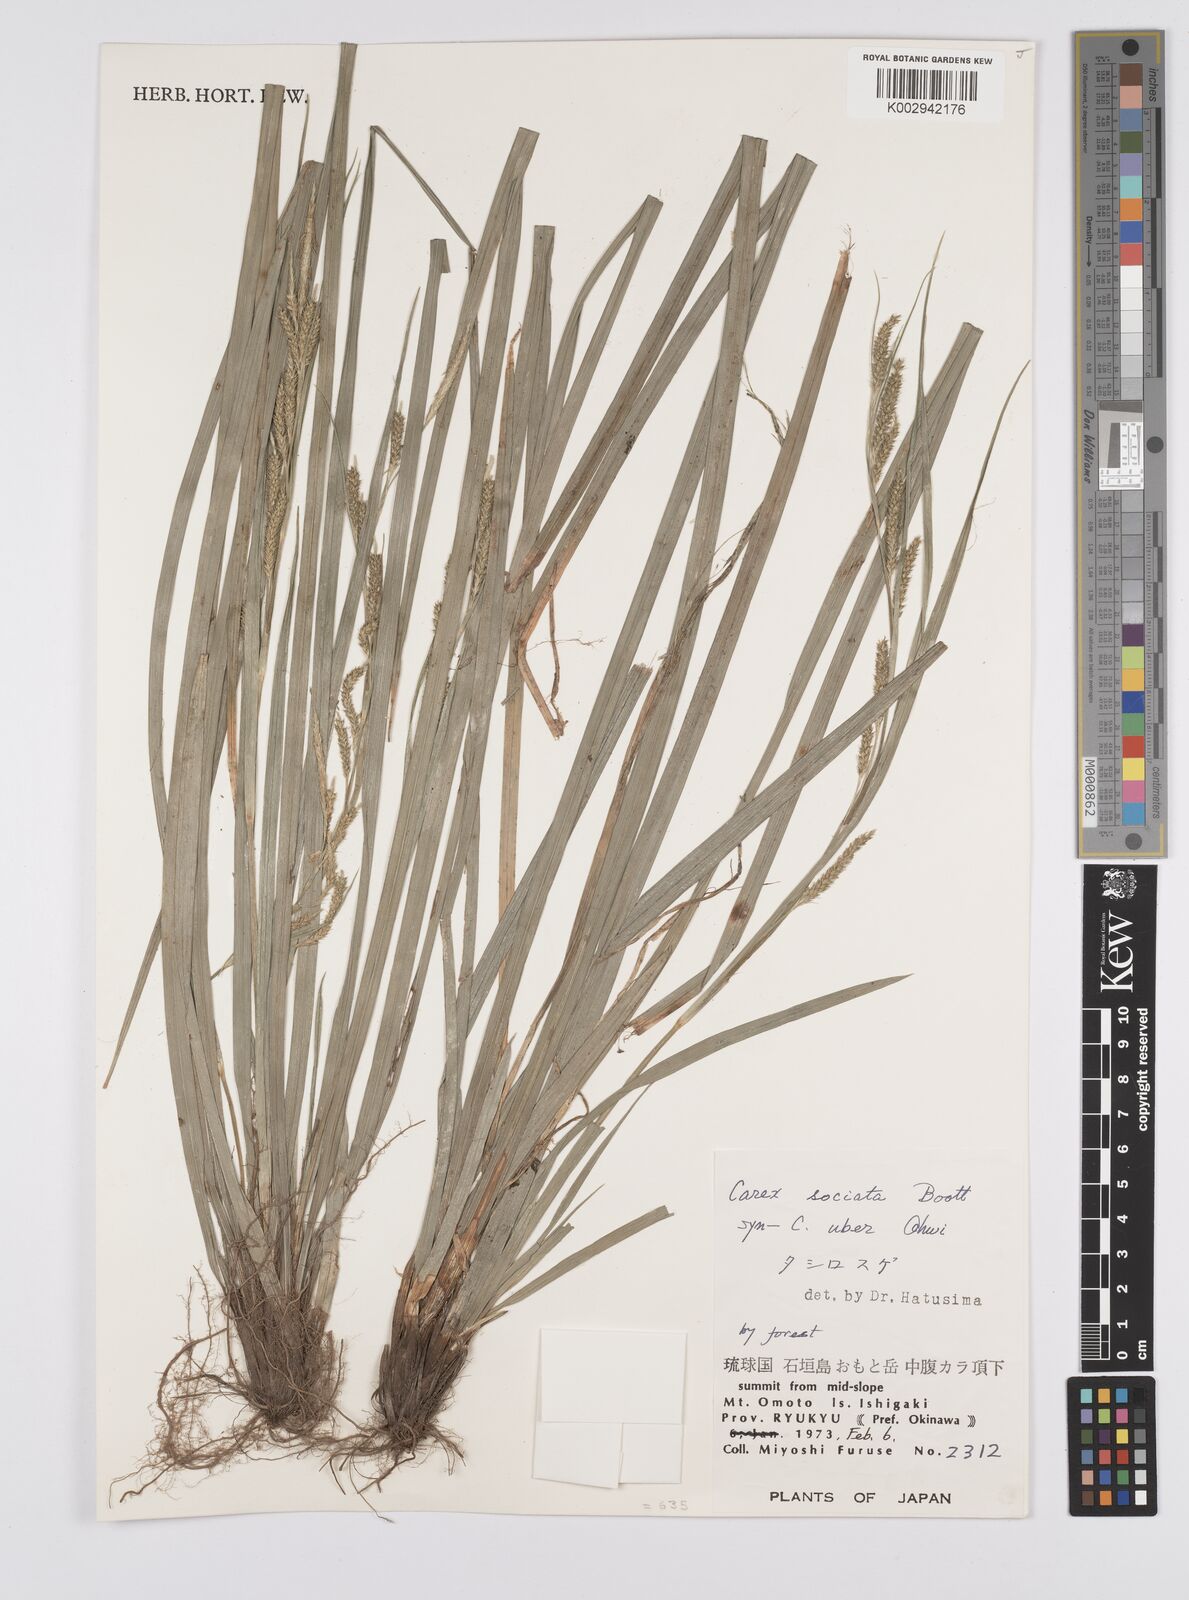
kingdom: Plantae
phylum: Tracheophyta
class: Liliopsida
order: Poales
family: Cyperaceae
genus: Carex
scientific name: Carex chinensis
